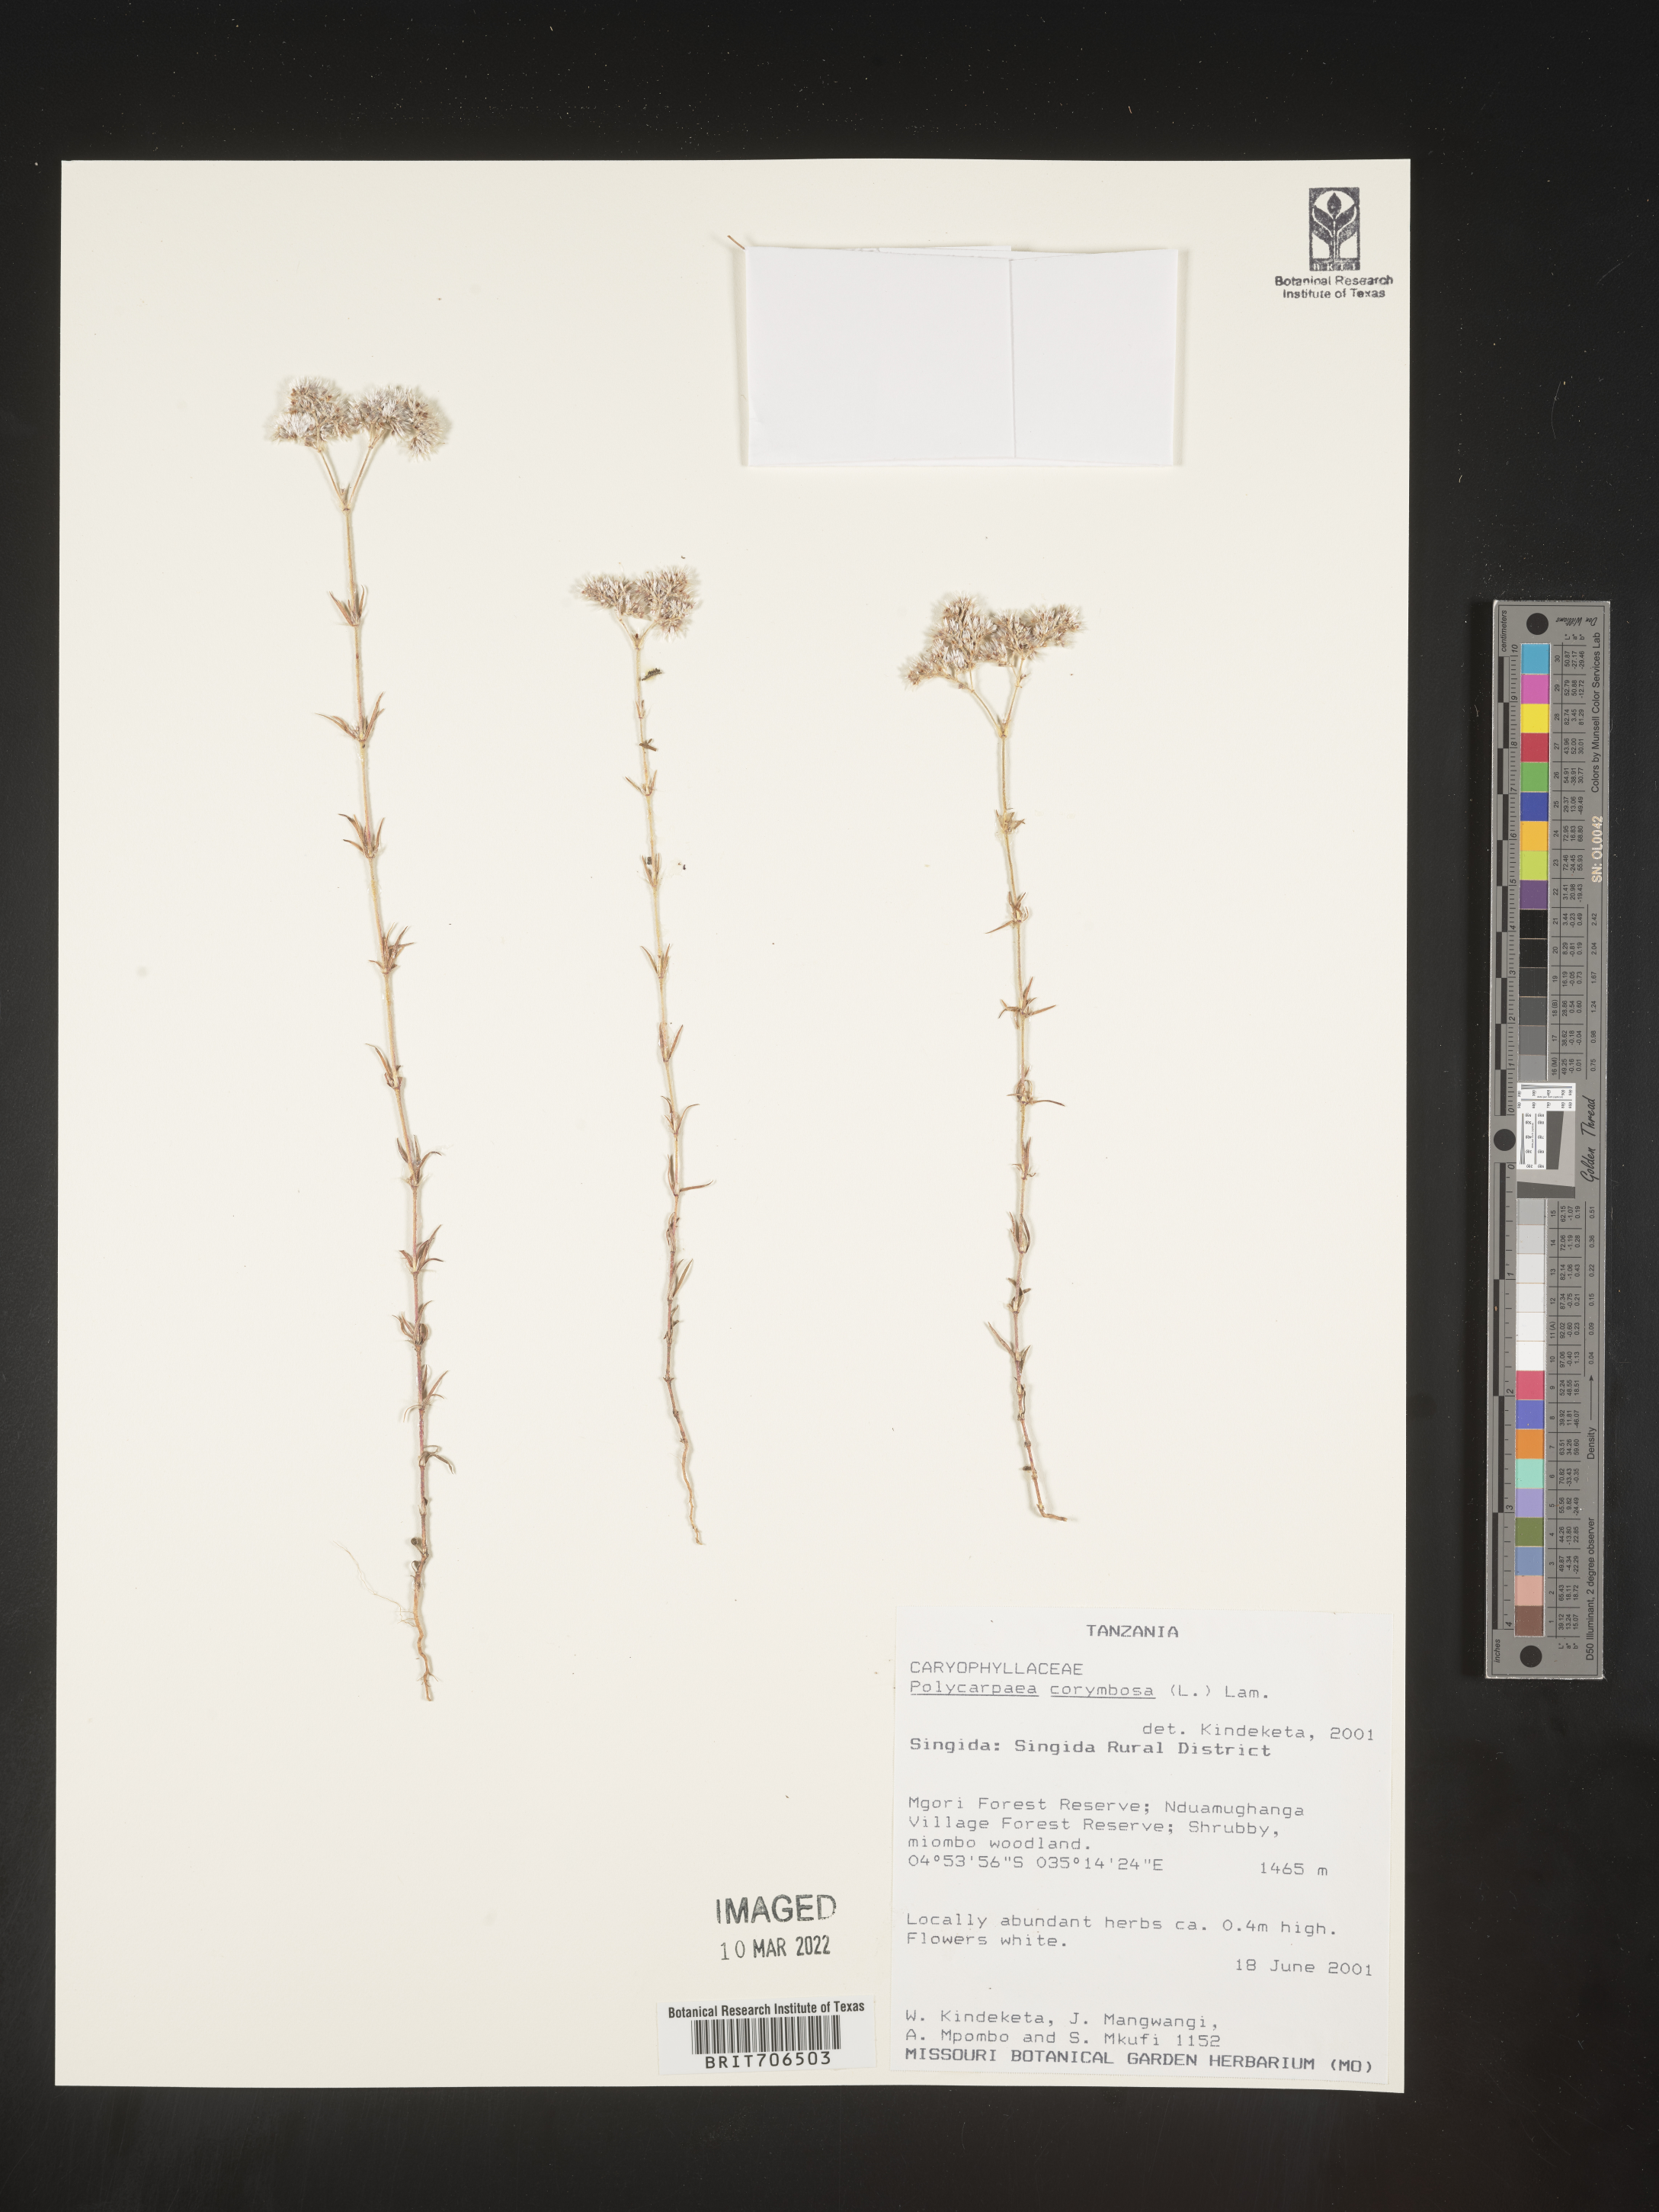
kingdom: Plantae
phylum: Tracheophyta
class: Magnoliopsida
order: Caryophyllales
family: Caryophyllaceae
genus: Polycarpaea
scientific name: Polycarpaea
